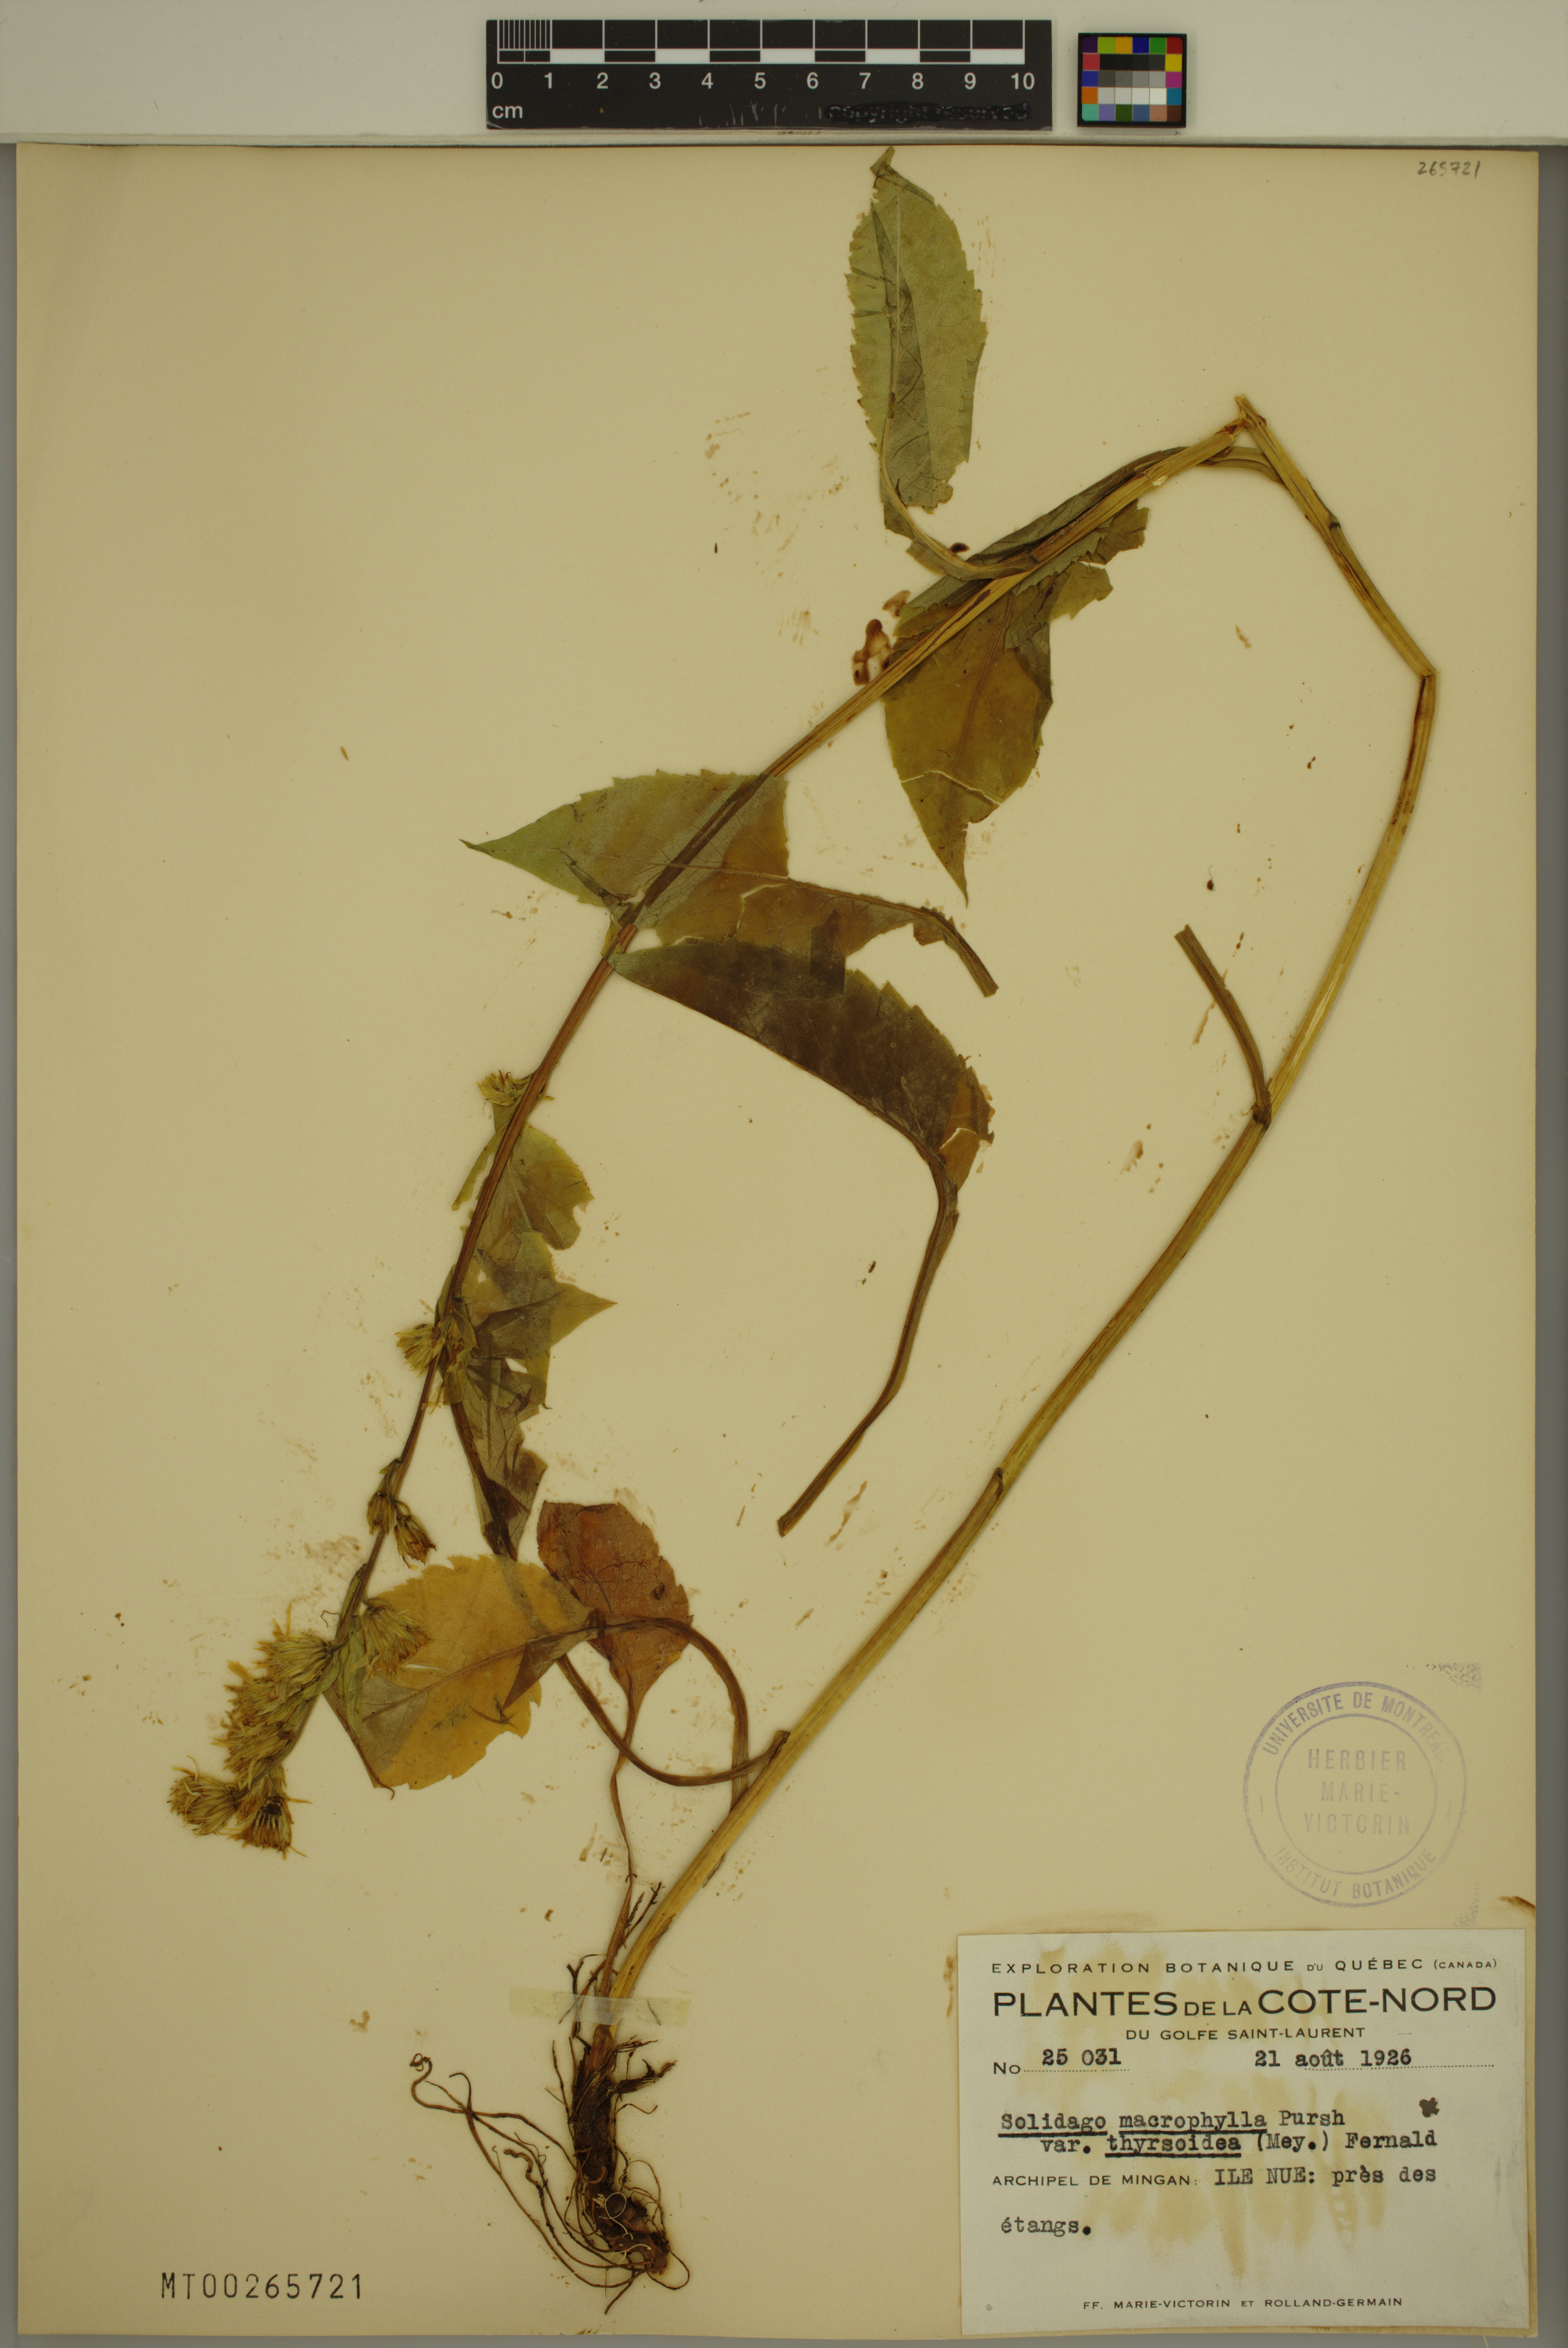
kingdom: Plantae
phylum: Tracheophyta
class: Magnoliopsida
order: Asterales
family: Asteraceae
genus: Solidago
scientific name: Solidago macrophylla
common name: Large-leaved goldenrod
